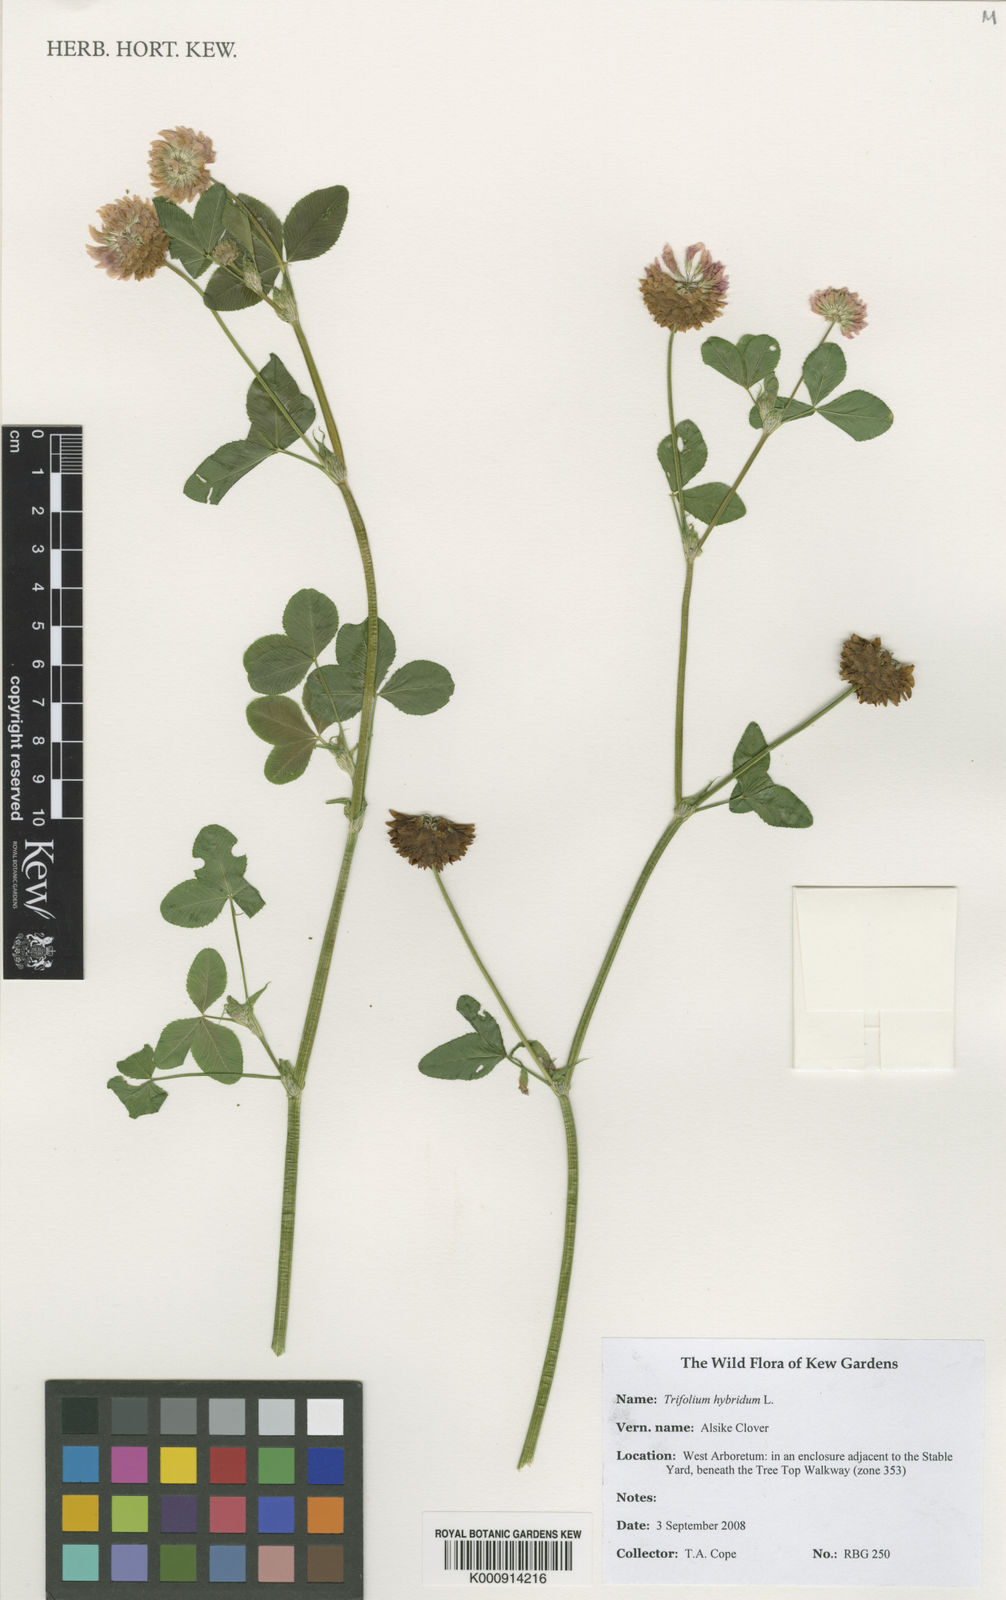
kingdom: Plantae
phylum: Tracheophyta
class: Magnoliopsida
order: Fabales
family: Fabaceae
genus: Trifolium
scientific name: Trifolium hybridum
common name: Alsike clover
